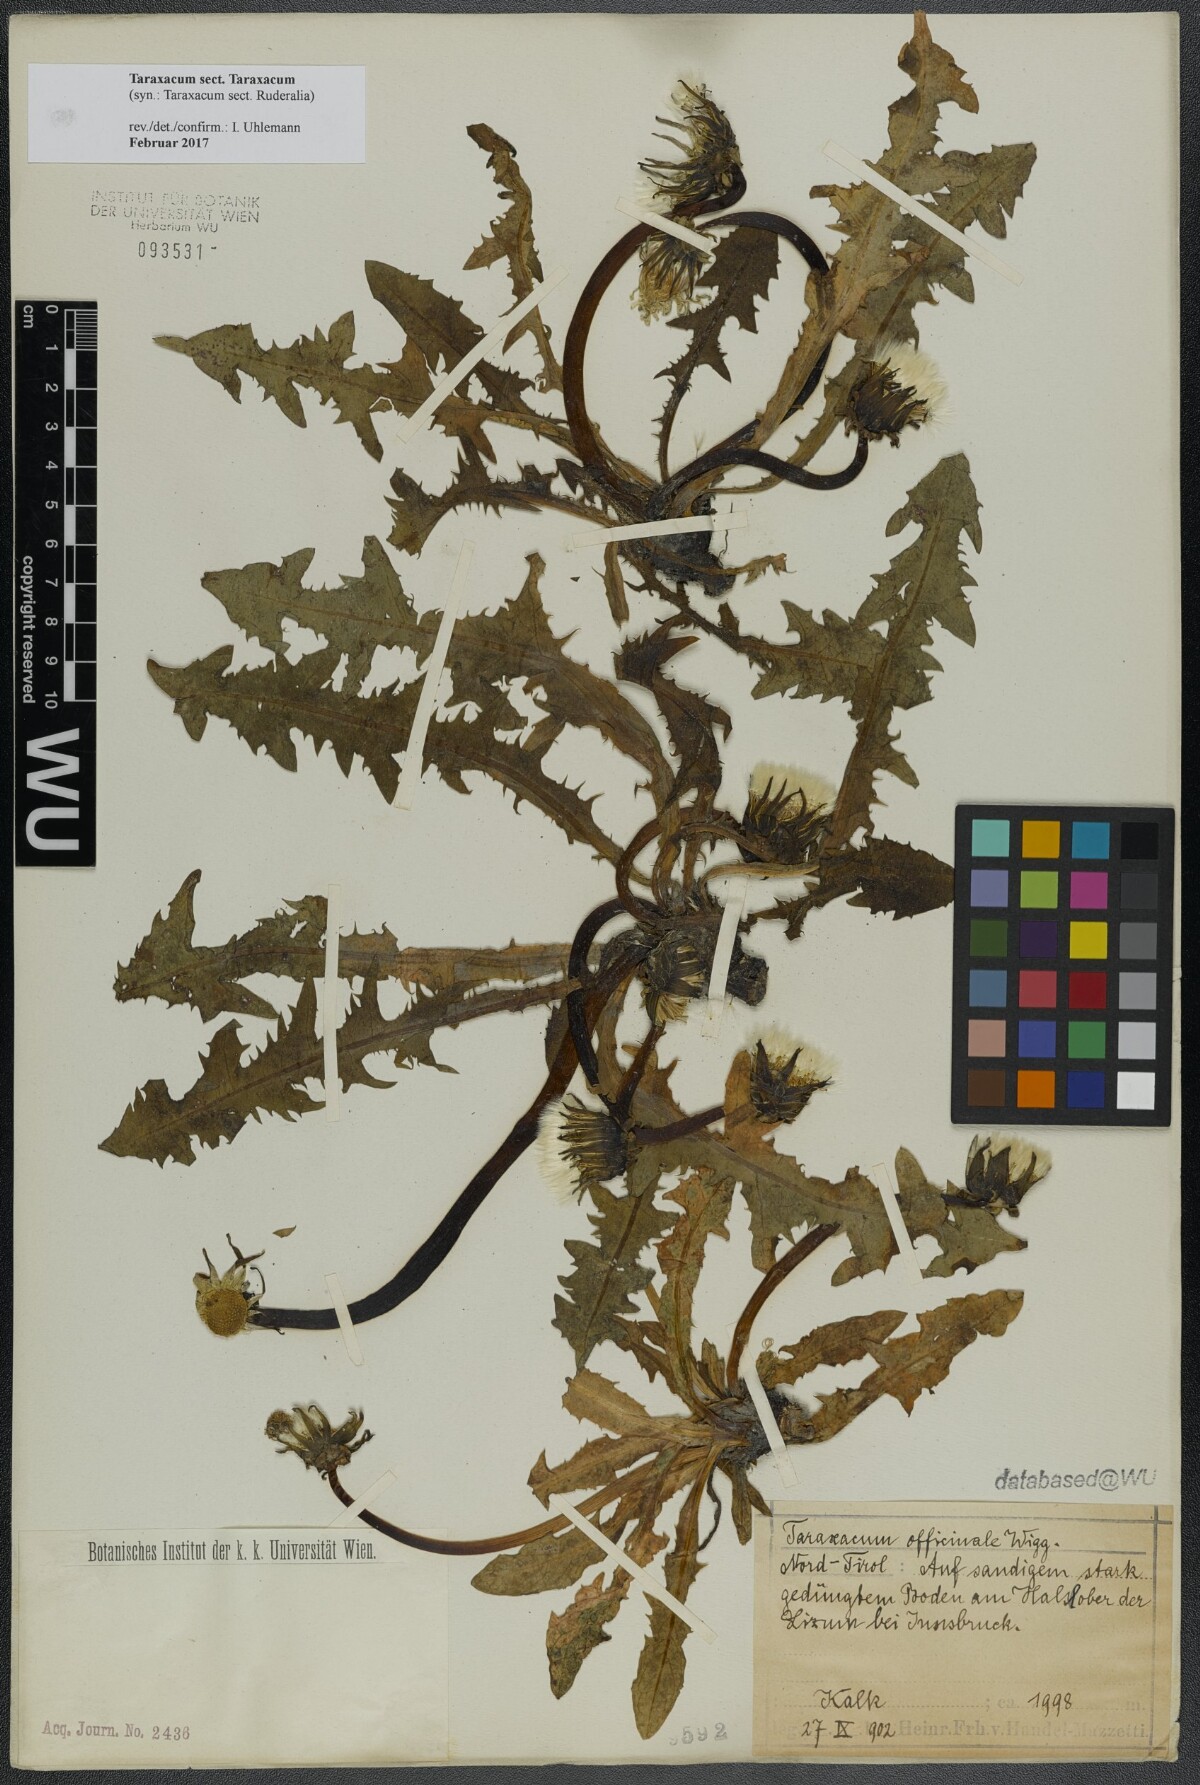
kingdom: Plantae
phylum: Tracheophyta
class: Magnoliopsida
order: Asterales
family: Asteraceae
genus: Taraxacum
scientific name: Taraxacum
